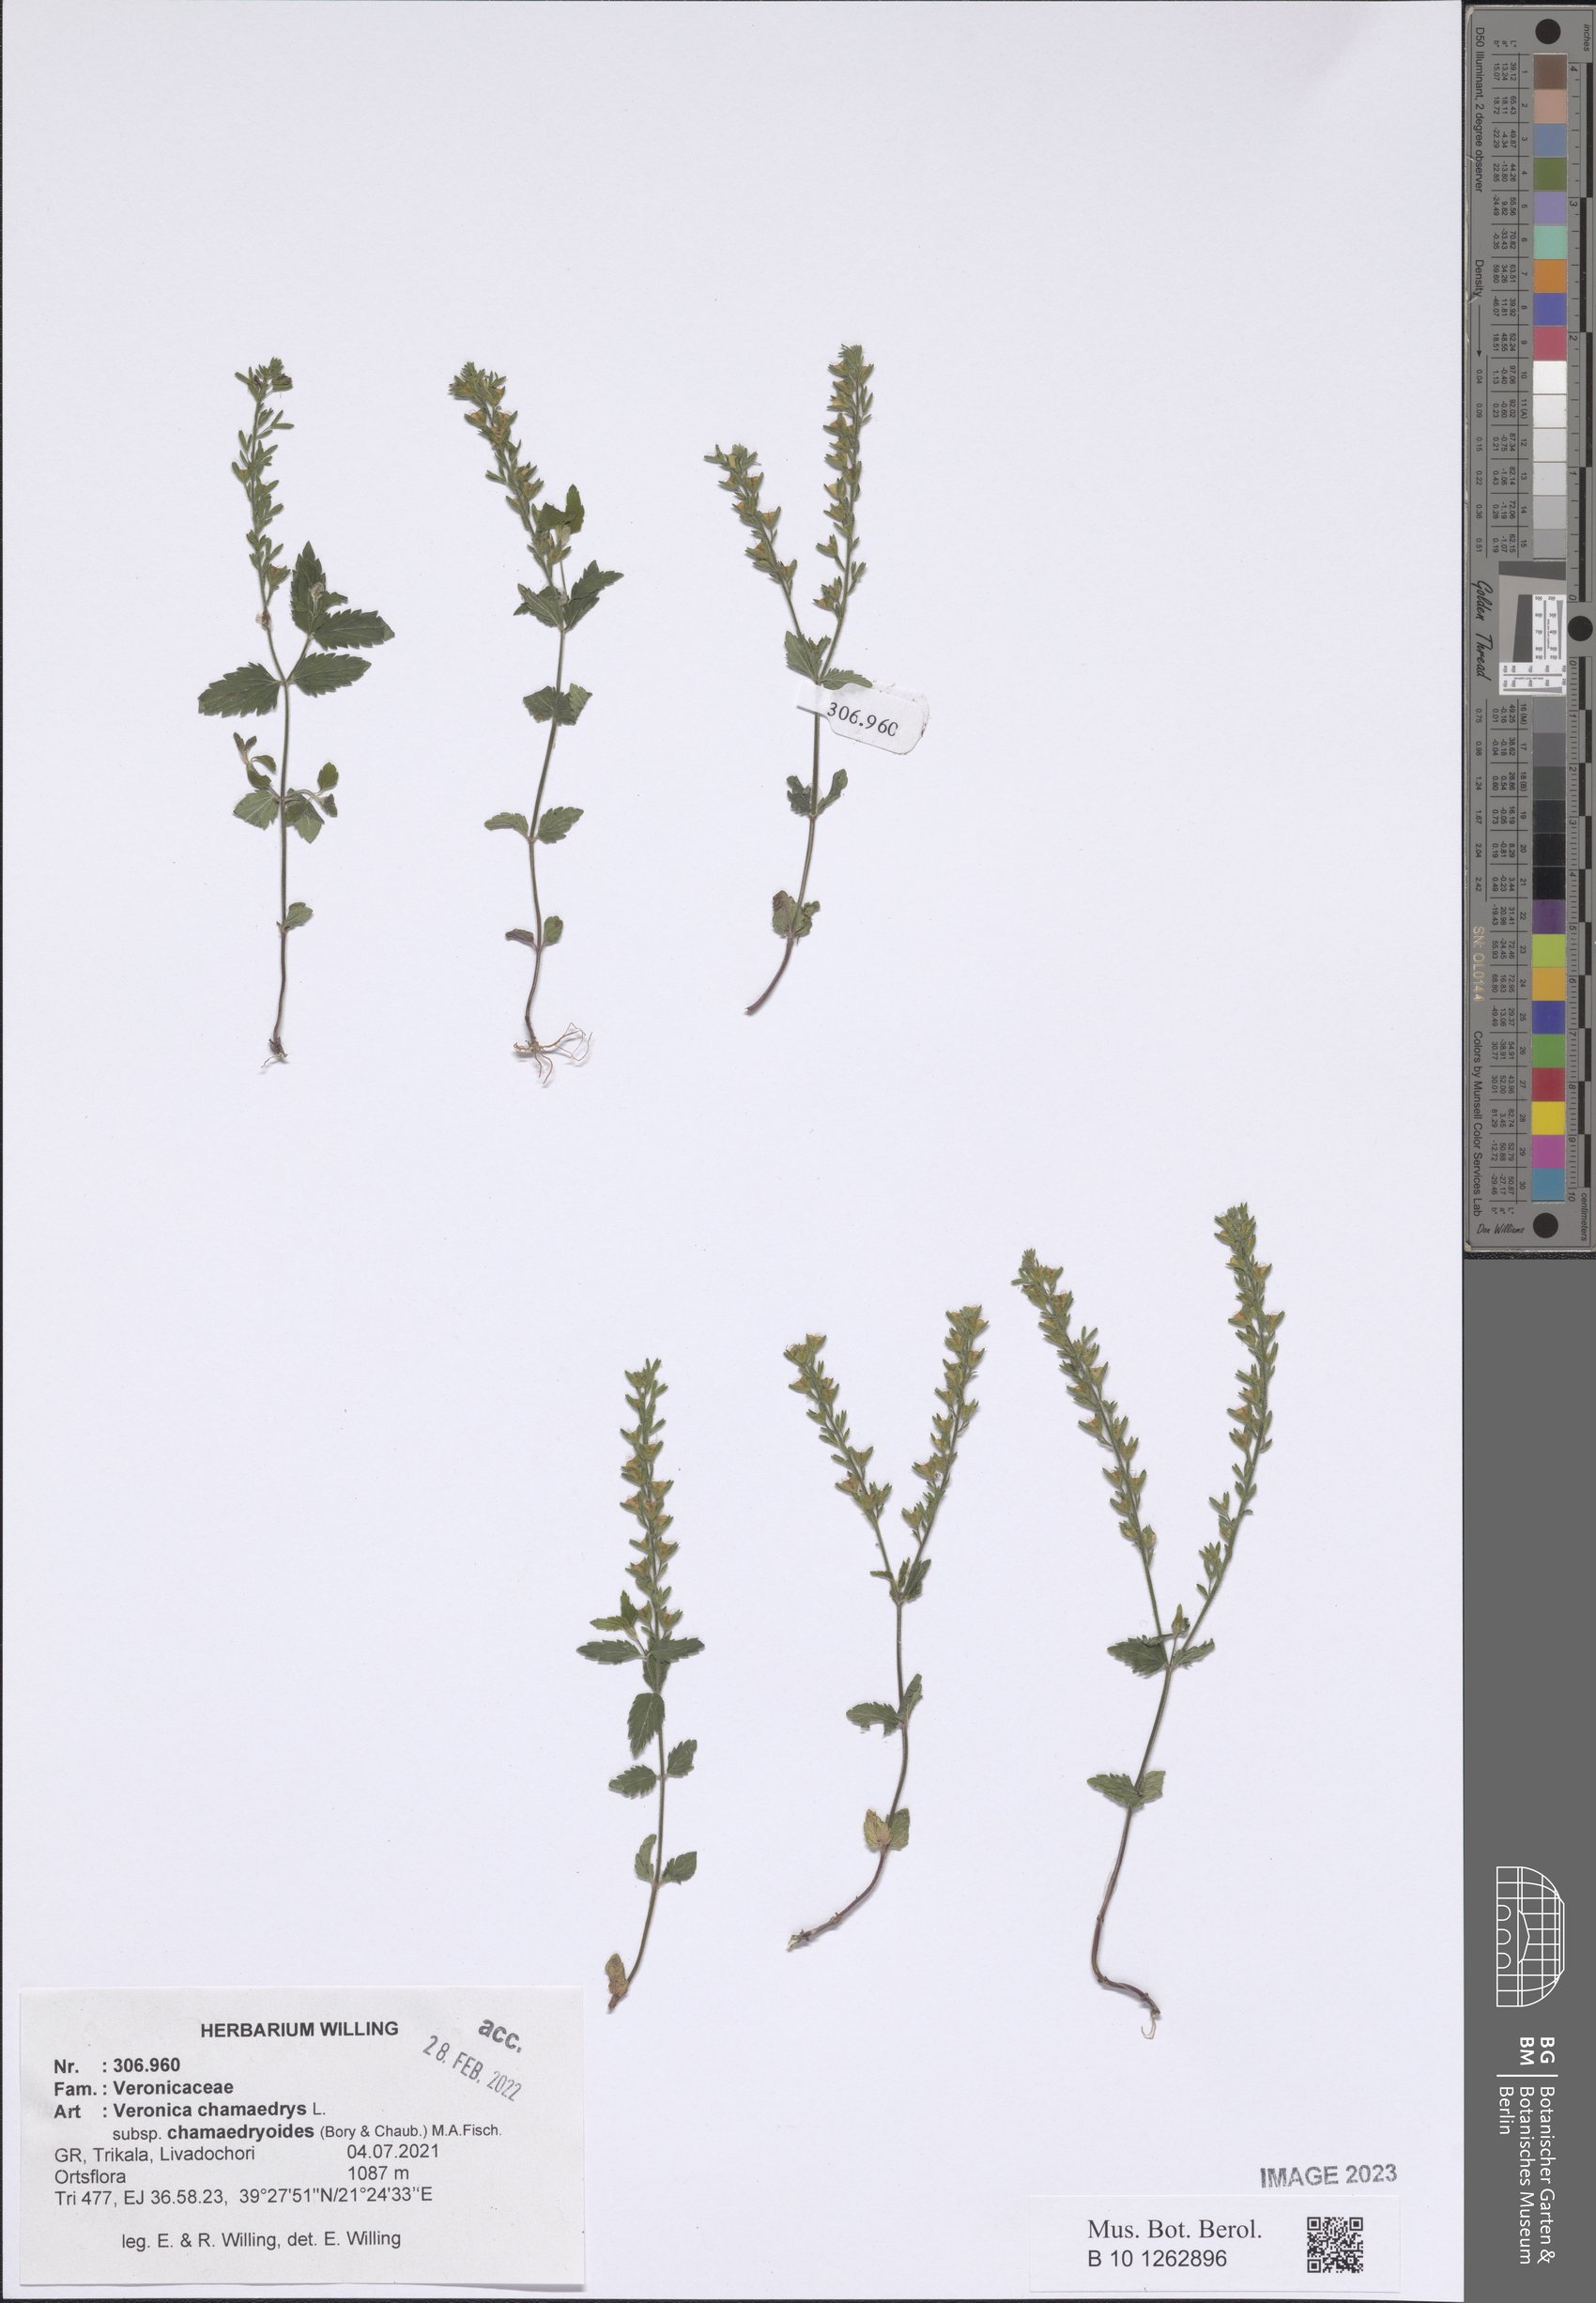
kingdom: Plantae
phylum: Tracheophyta
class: Magnoliopsida
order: Lamiales
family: Plantaginaceae
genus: Veronica
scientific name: Veronica chamaedrys
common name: Germander speedwell
